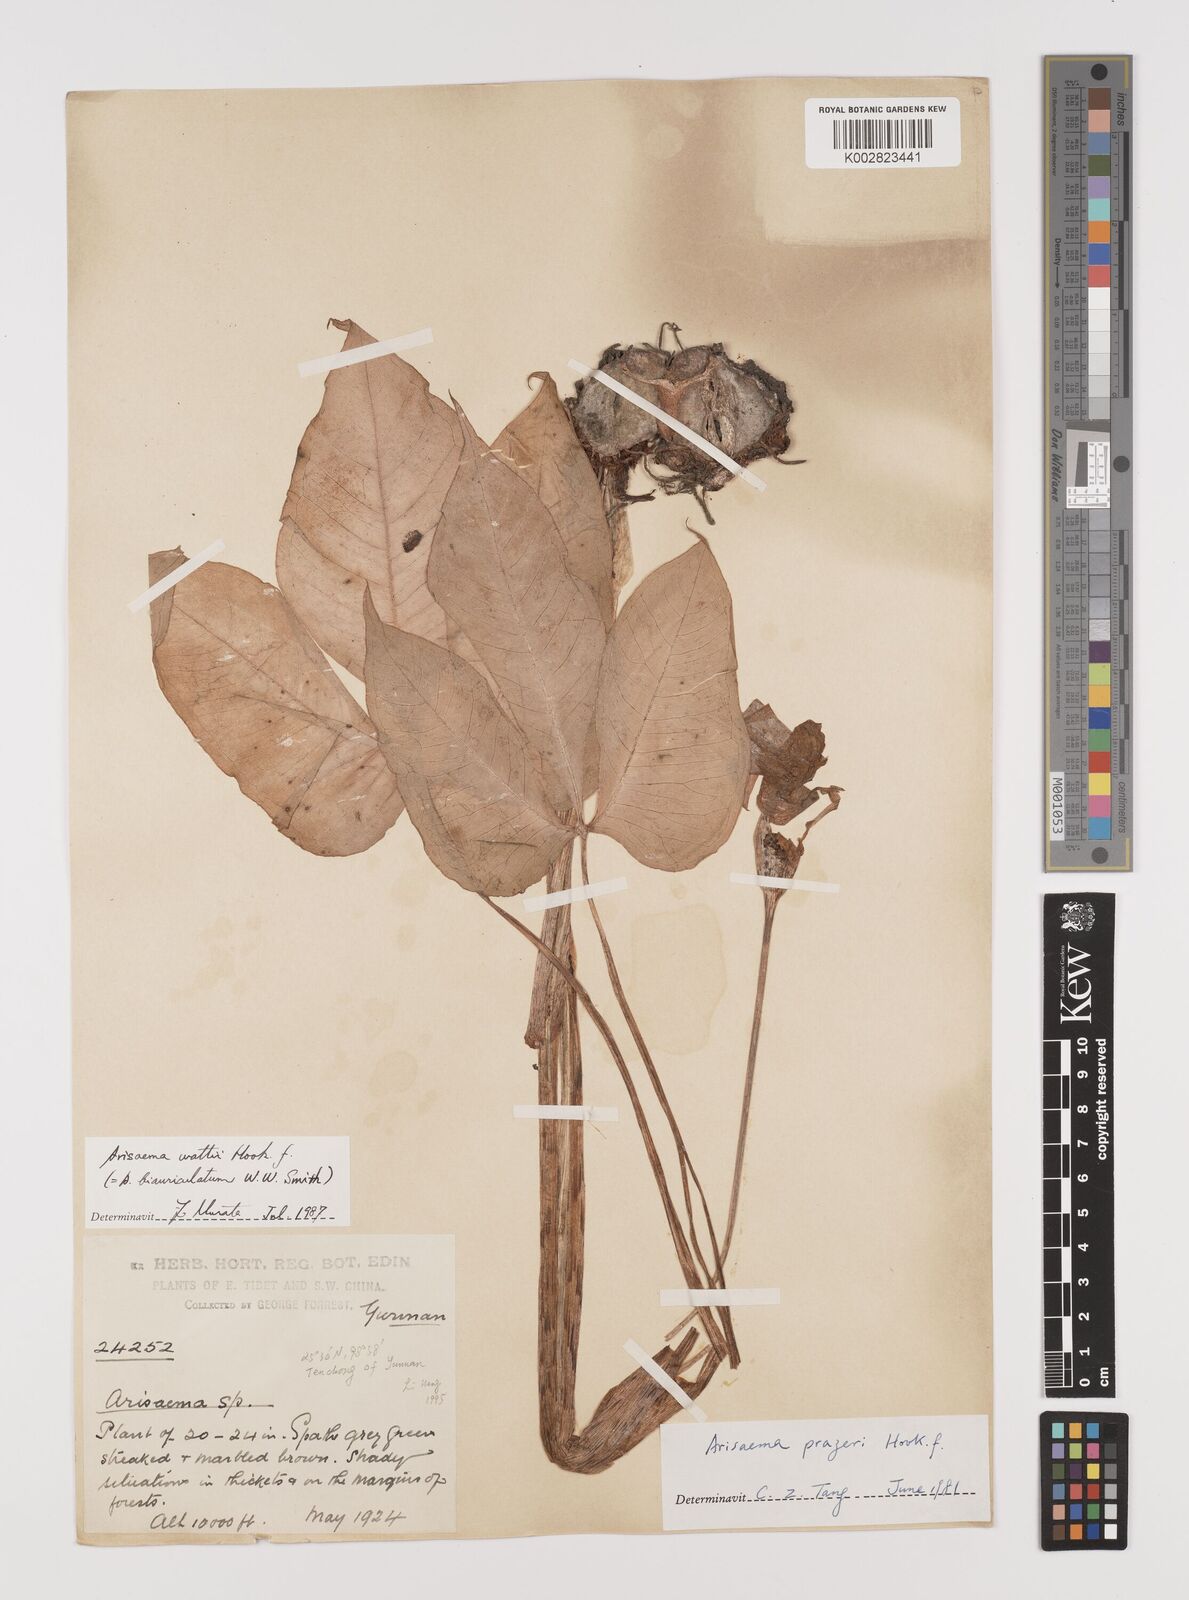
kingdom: Plantae
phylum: Tracheophyta
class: Liliopsida
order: Alismatales
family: Araceae
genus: Arisaema
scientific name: Arisaema wattii
